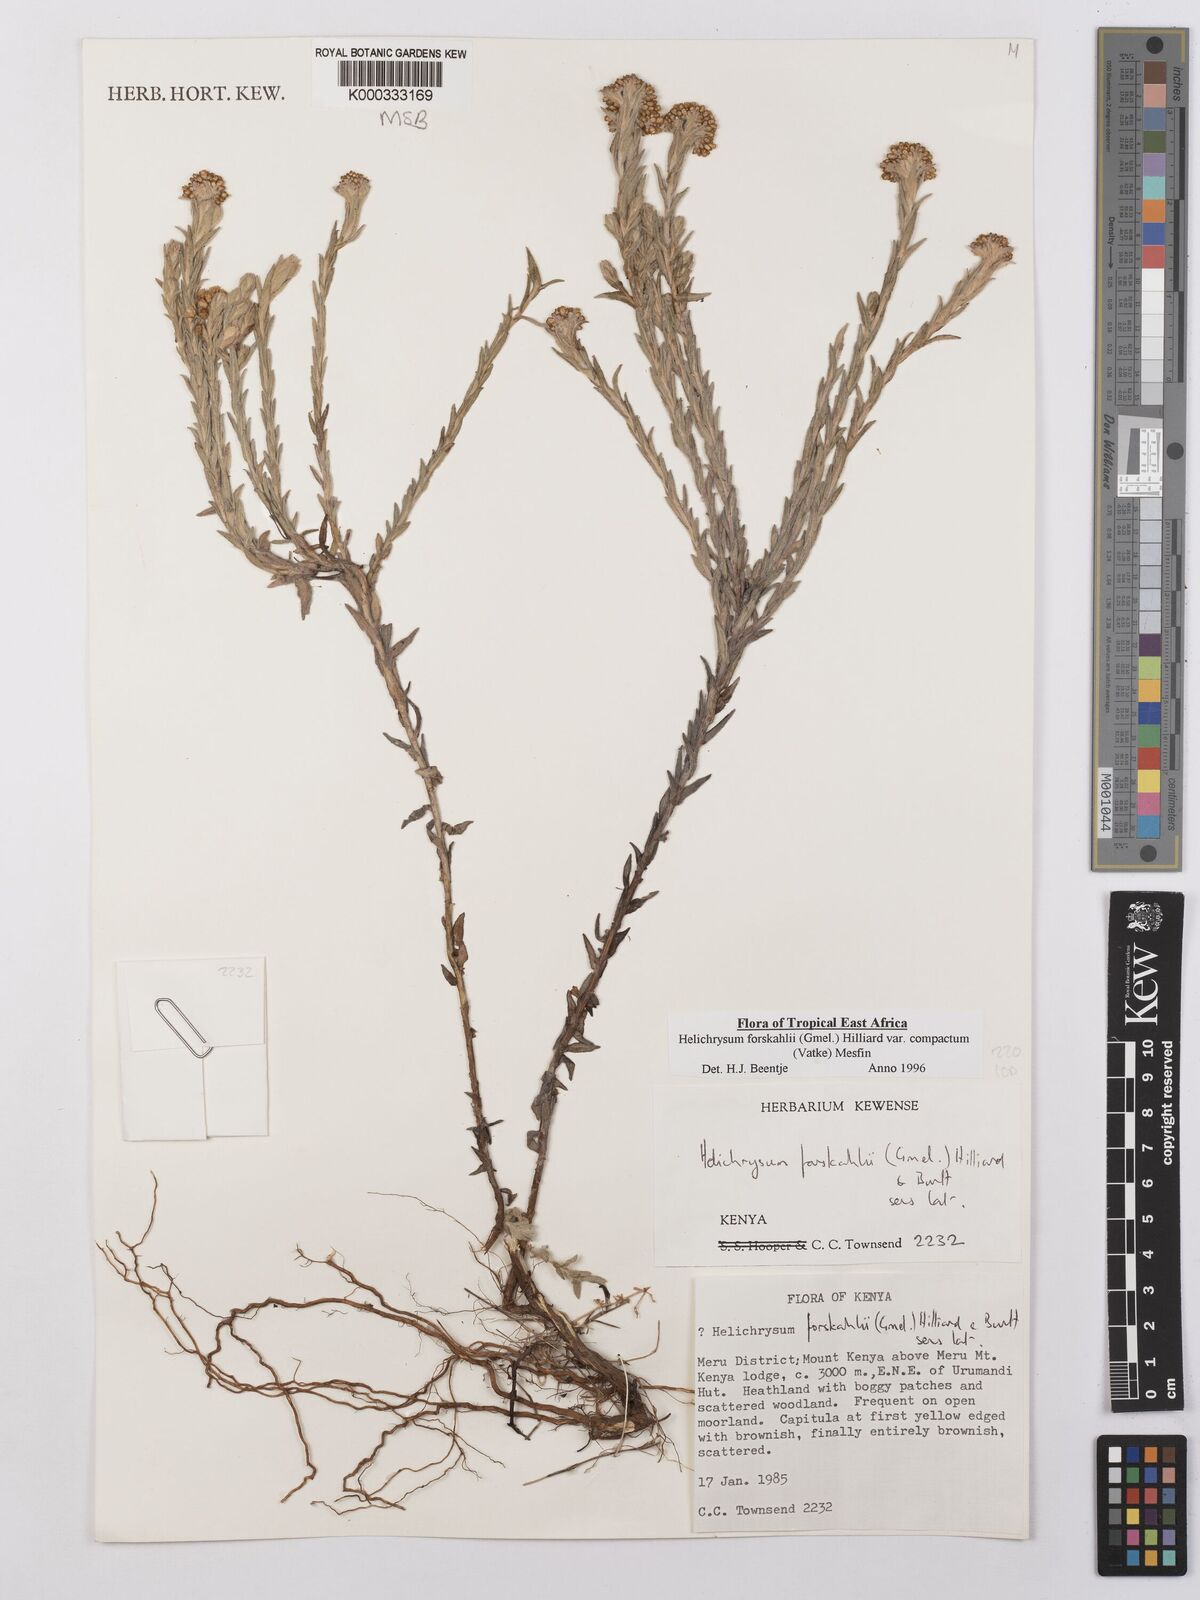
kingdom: Plantae
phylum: Tracheophyta
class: Magnoliopsida
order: Asterales
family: Asteraceae
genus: Helichrysum
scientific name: Helichrysum forskahlii
